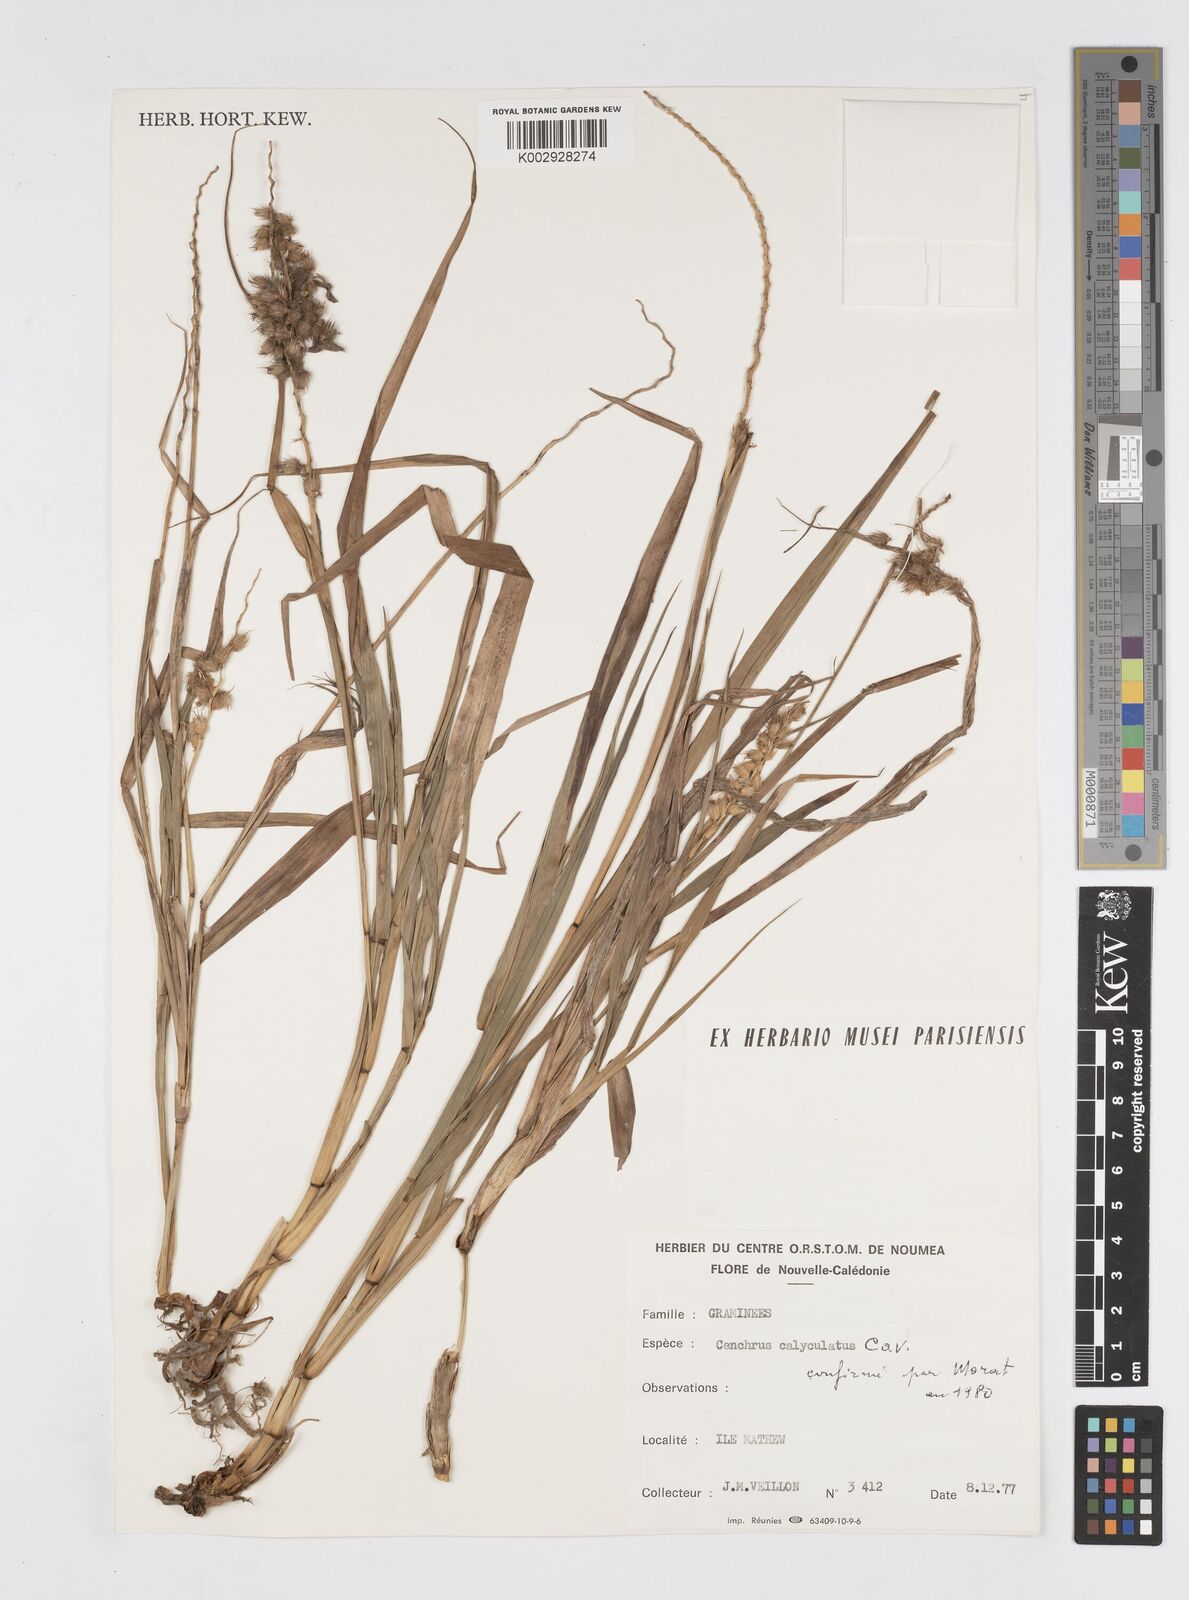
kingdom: Plantae
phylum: Tracheophyta
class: Liliopsida
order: Poales
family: Poaceae
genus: Cenchrus
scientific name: Cenchrus caliculatus
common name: Large bur grass
